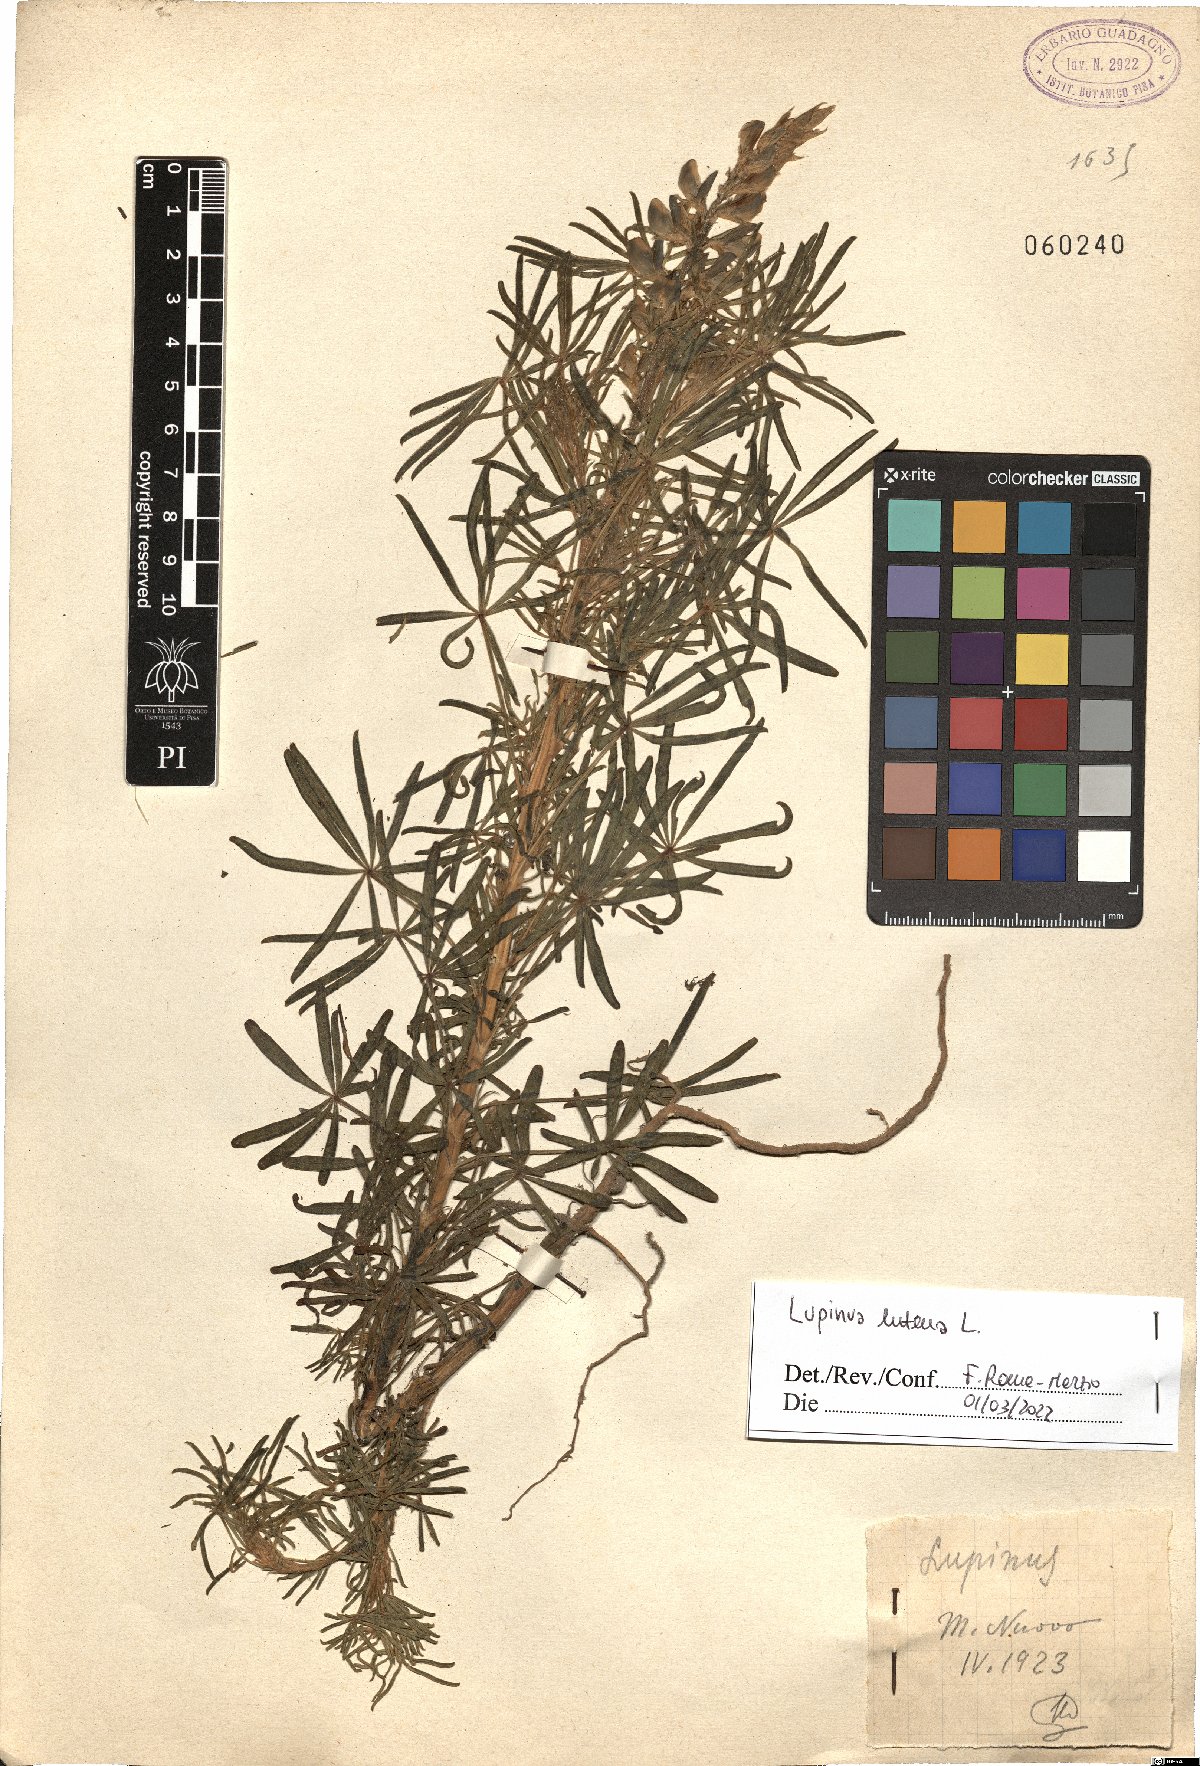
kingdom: Plantae
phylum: Tracheophyta
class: Magnoliopsida
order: Fabales
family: Fabaceae
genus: Lupinus
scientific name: Lupinus luteus
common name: European yellow lupine
